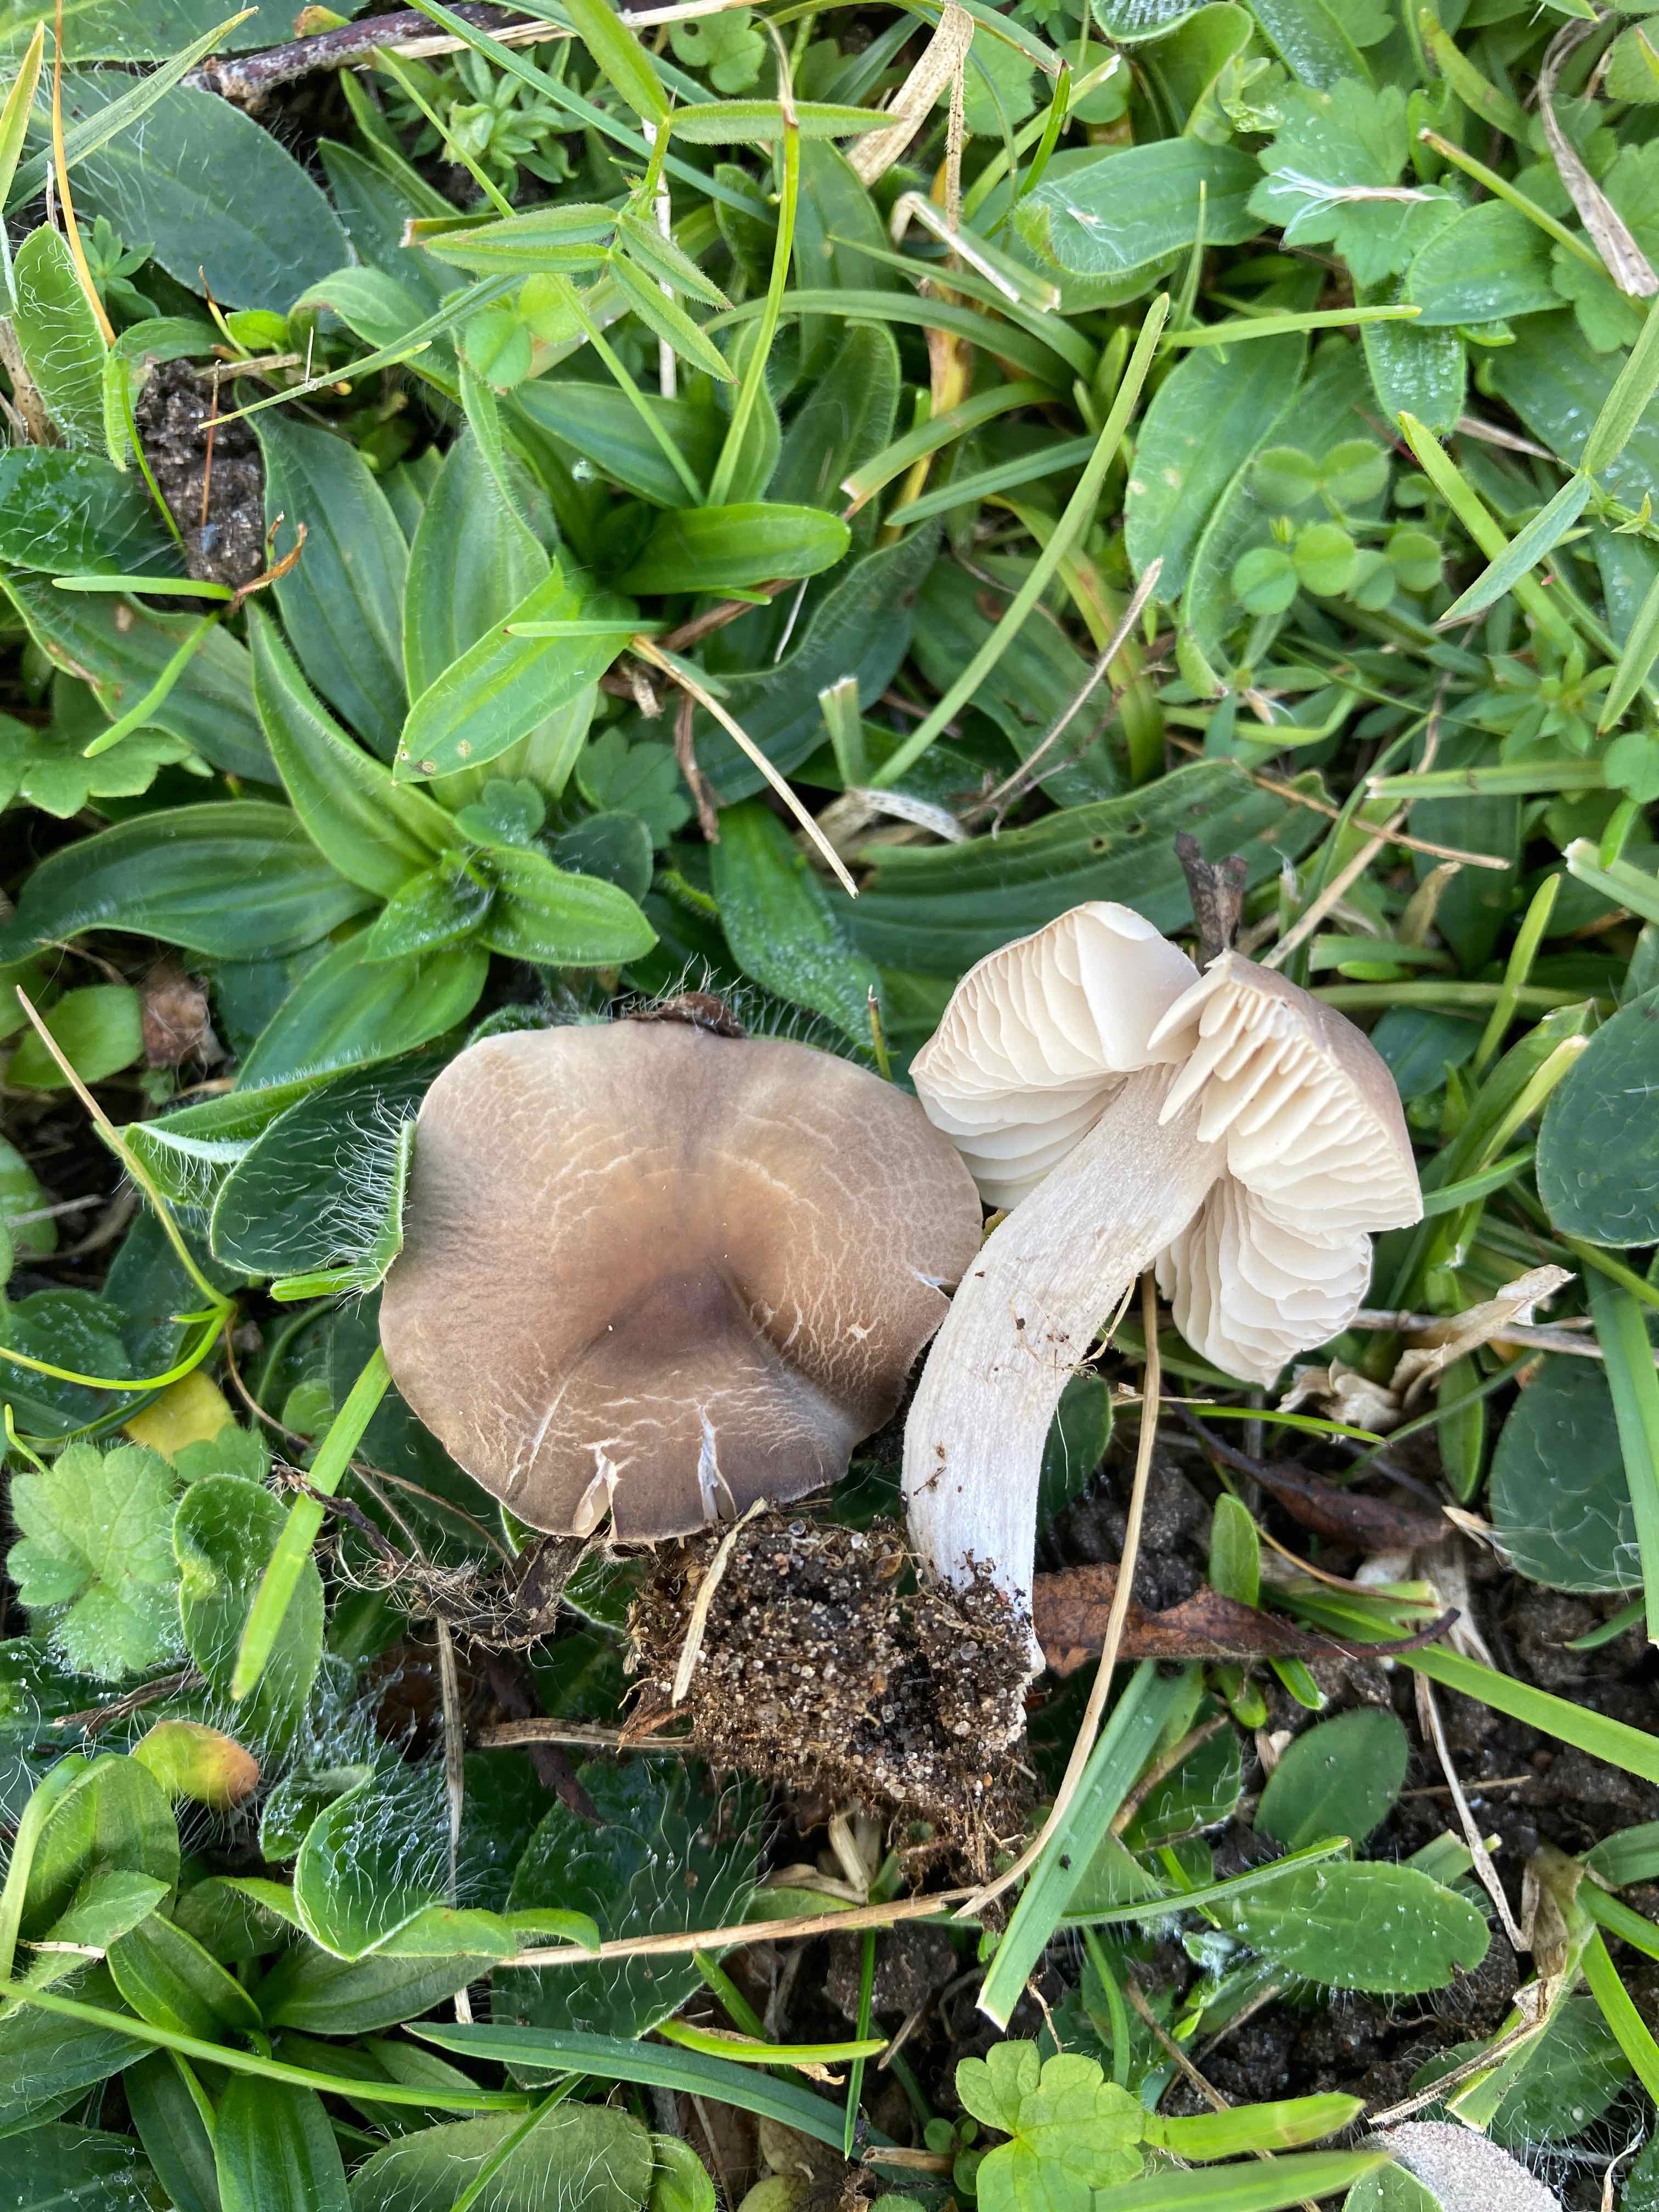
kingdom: Fungi
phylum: Basidiomycota
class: Agaricomycetes
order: Agaricales
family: Tricholomataceae
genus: Dermoloma
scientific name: Dermoloma cuneifolium
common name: eng-nonnehat
